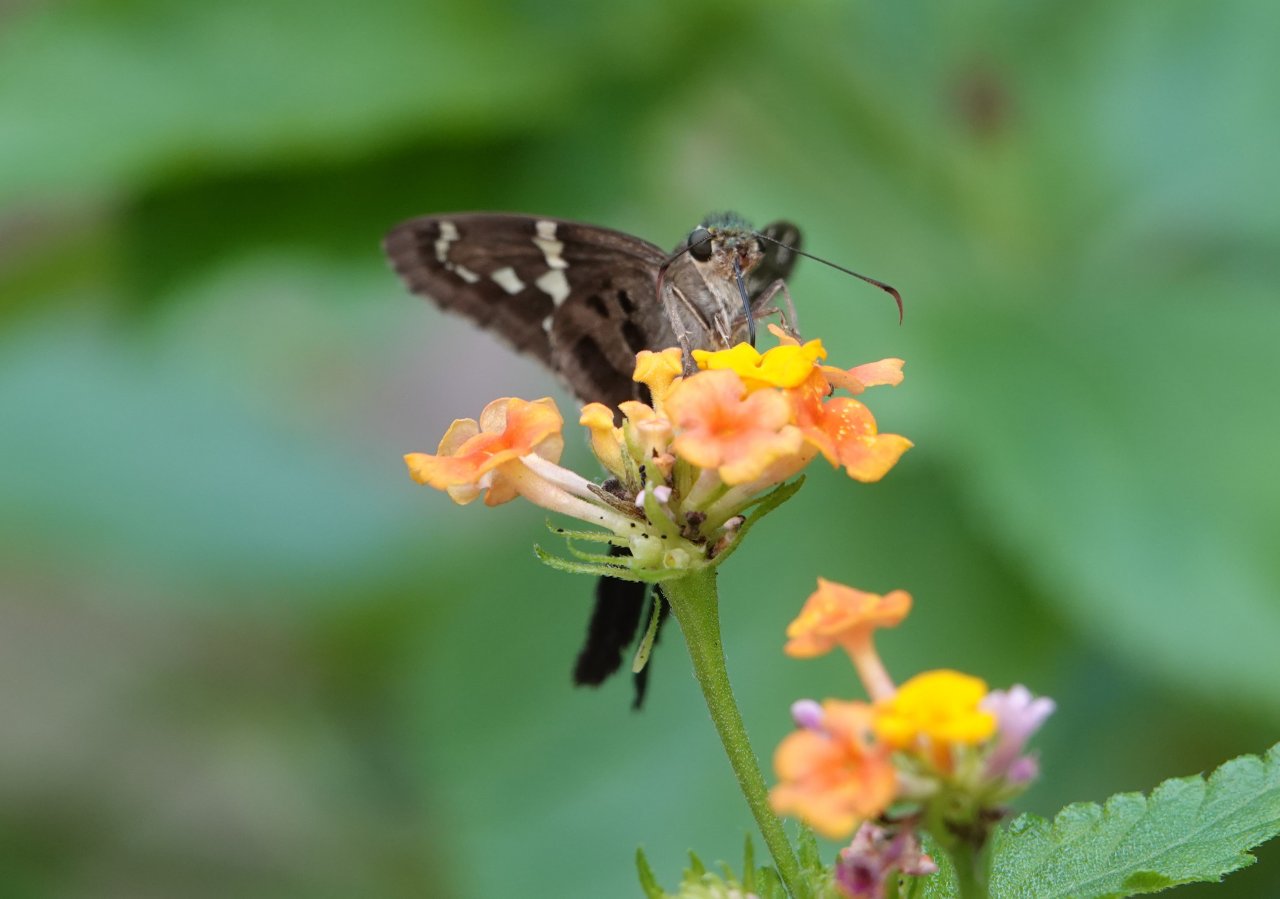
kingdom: Animalia
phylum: Arthropoda
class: Insecta
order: Lepidoptera
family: Hesperiidae
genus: Urbanus
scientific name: Urbanus proteus
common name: Long-tailed Skipper
